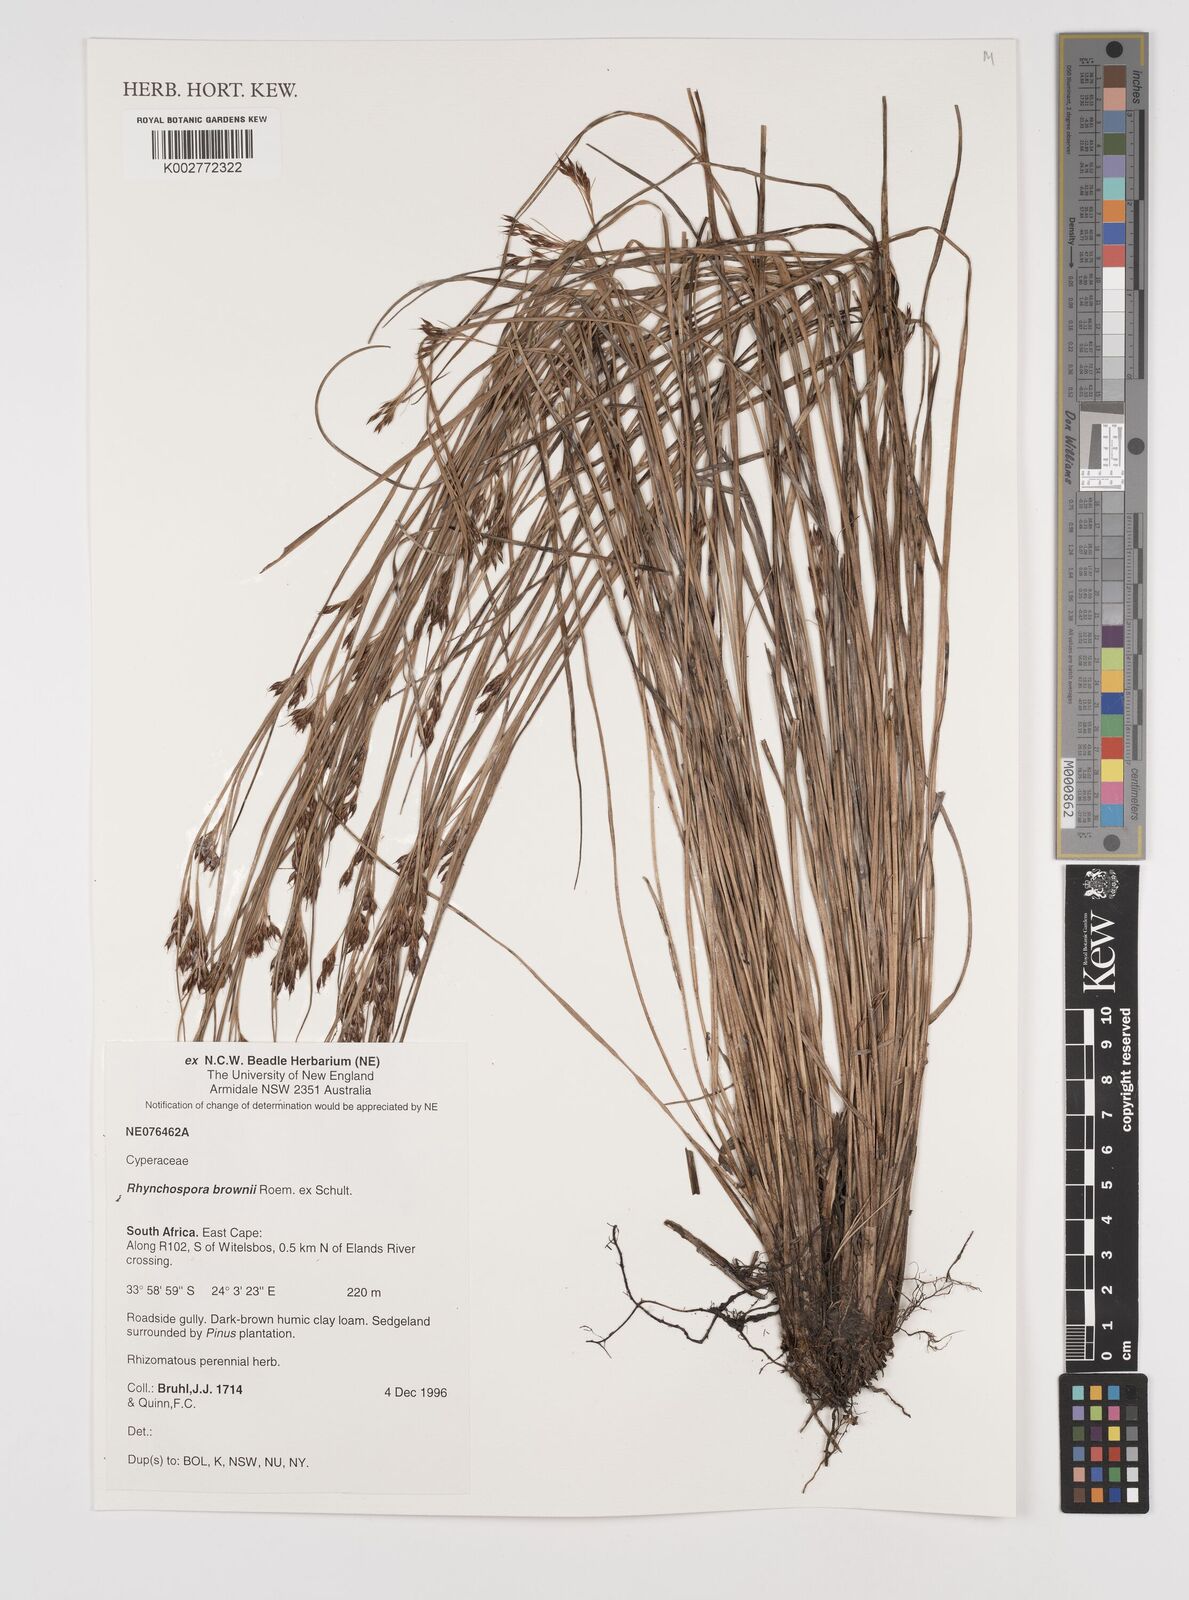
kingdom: Plantae
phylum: Tracheophyta
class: Liliopsida
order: Poales
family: Cyperaceae
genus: Rhynchospora
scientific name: Rhynchospora rugosa
